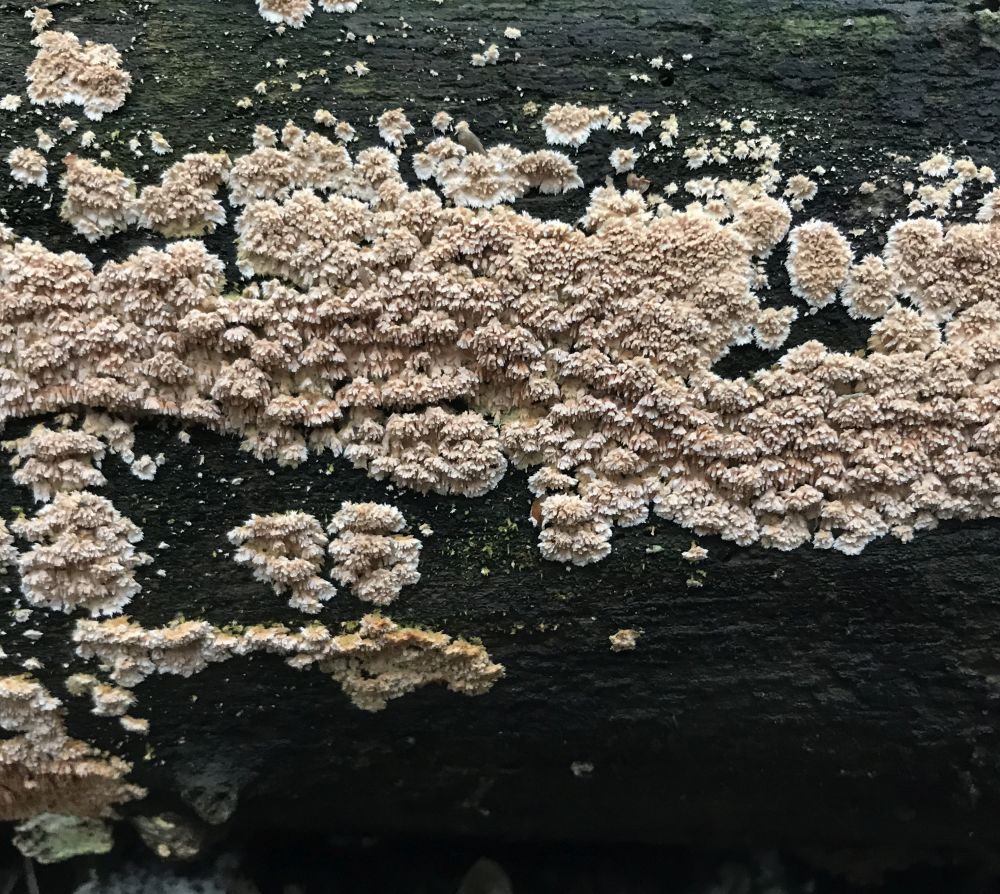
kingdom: Fungi
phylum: Basidiomycota
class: Agaricomycetes
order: Hymenochaetales
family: Schizoporaceae
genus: Schizopora
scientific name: Schizopora paradoxa
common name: hvid tandsvamp
